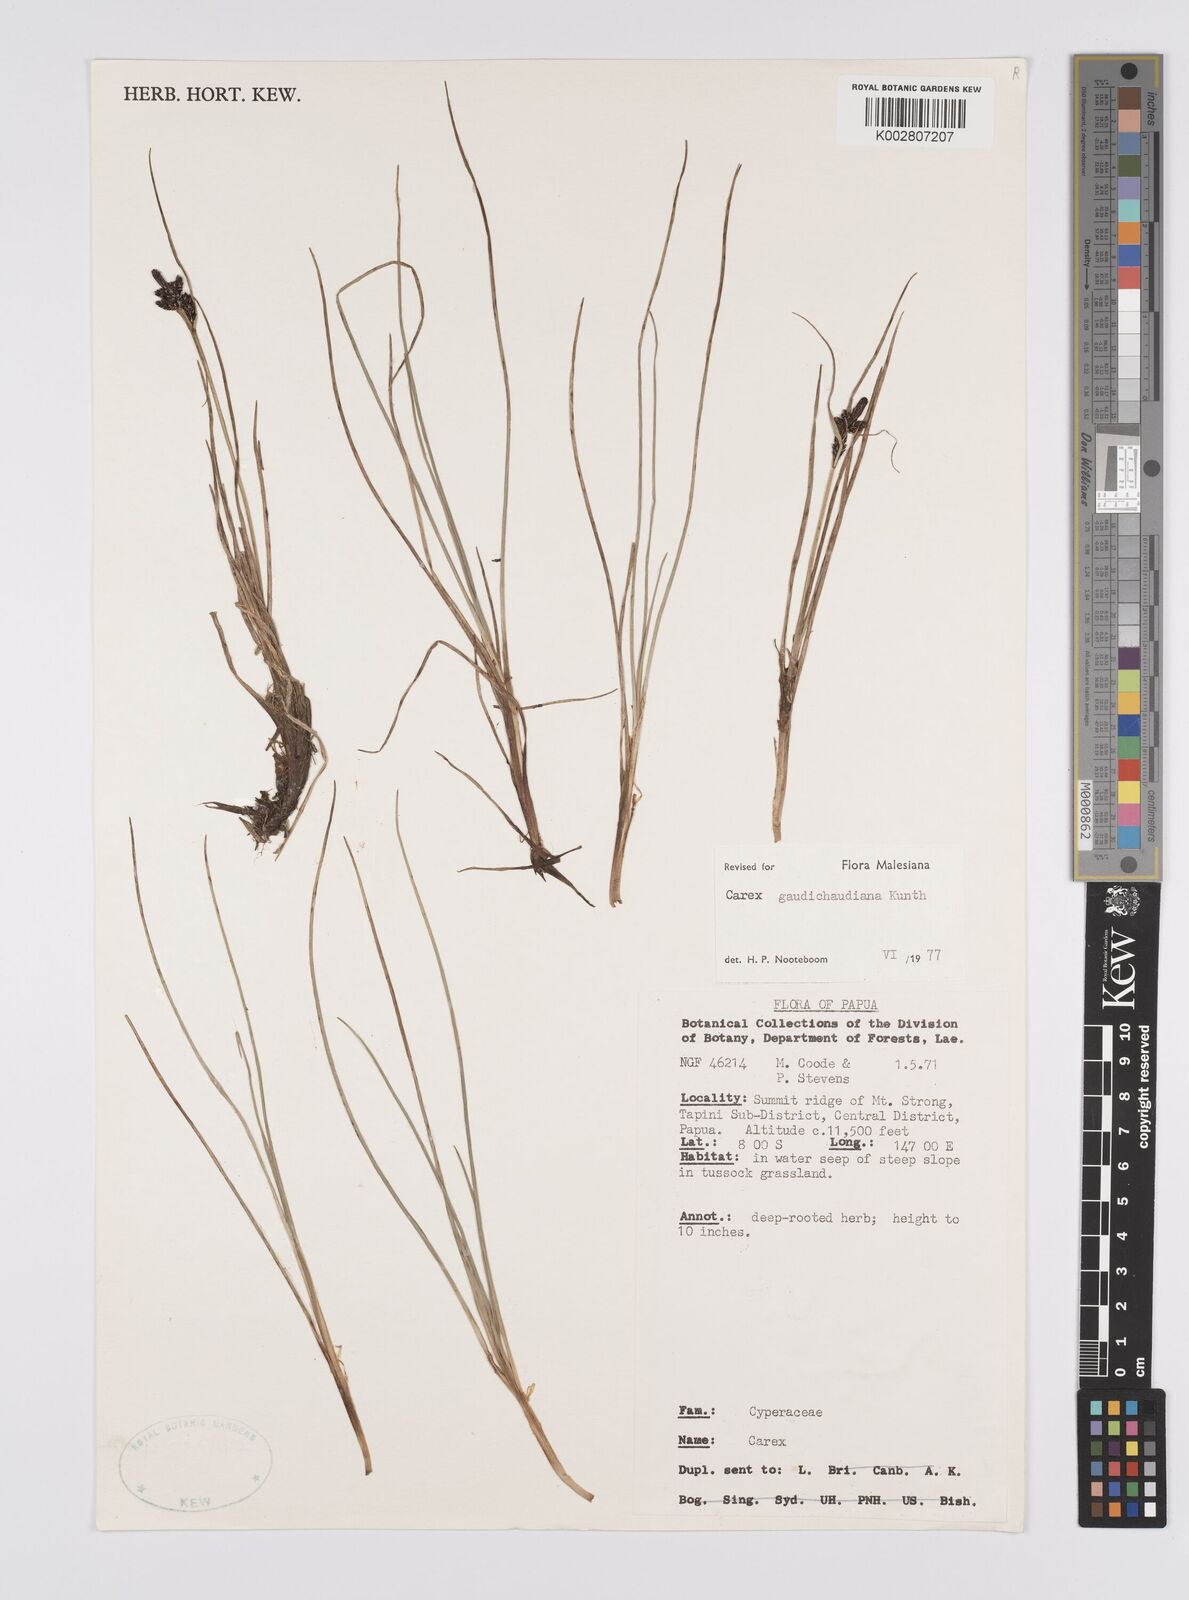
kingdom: Plantae
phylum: Tracheophyta
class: Liliopsida
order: Poales
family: Cyperaceae
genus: Carex
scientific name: Carex gaudichaudiana
